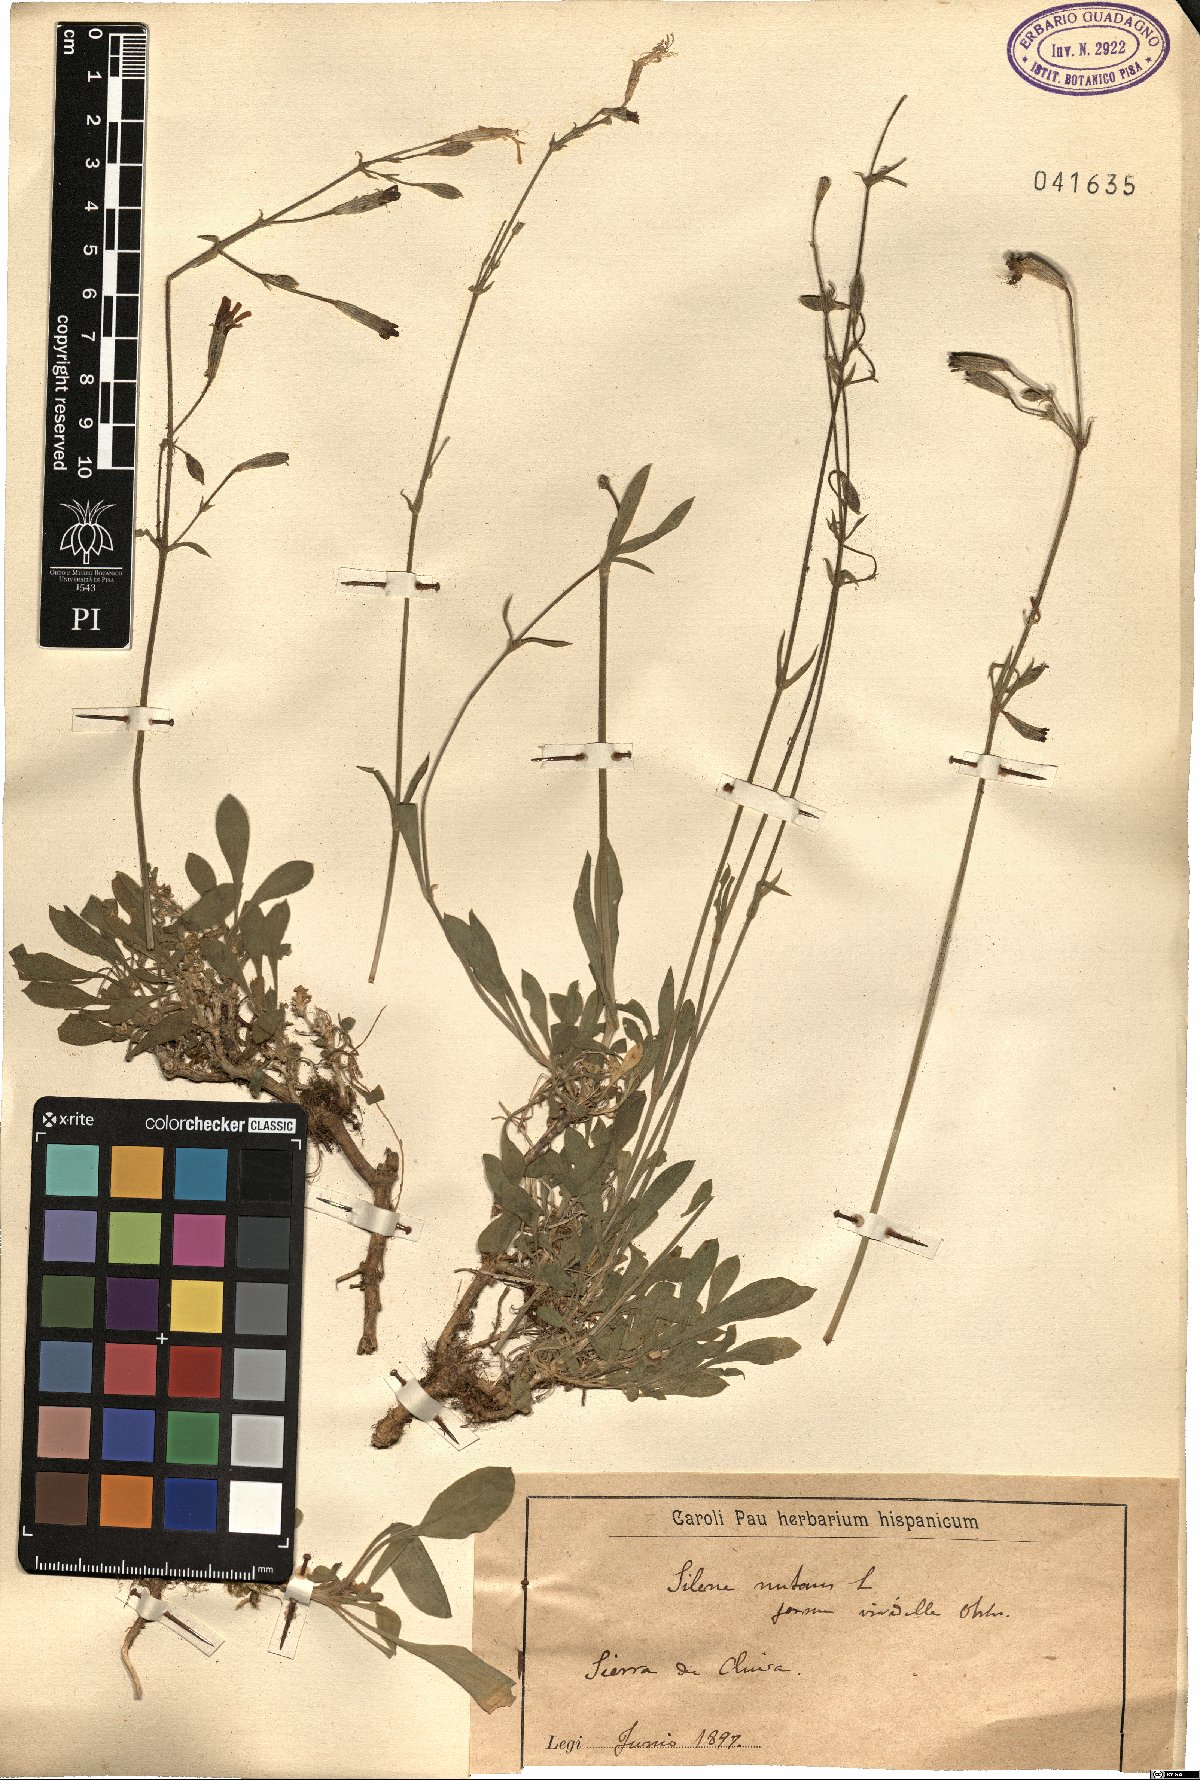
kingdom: Plantae
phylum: Tracheophyta
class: Magnoliopsida
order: Caryophyllales
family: Caryophyllaceae
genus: Silene
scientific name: Silene nutans
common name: Nottingham catchfly
